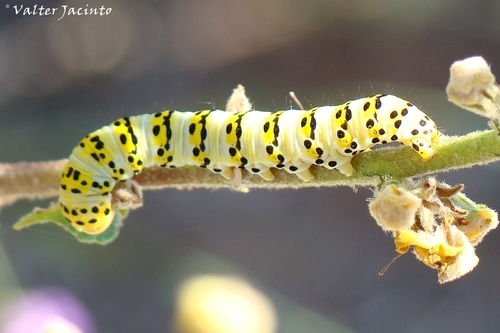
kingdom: Animalia
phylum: Arthropoda
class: Insecta
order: Lepidoptera
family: Noctuidae
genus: Cucullia
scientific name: Cucullia lychnitis
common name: Striped lychnis
